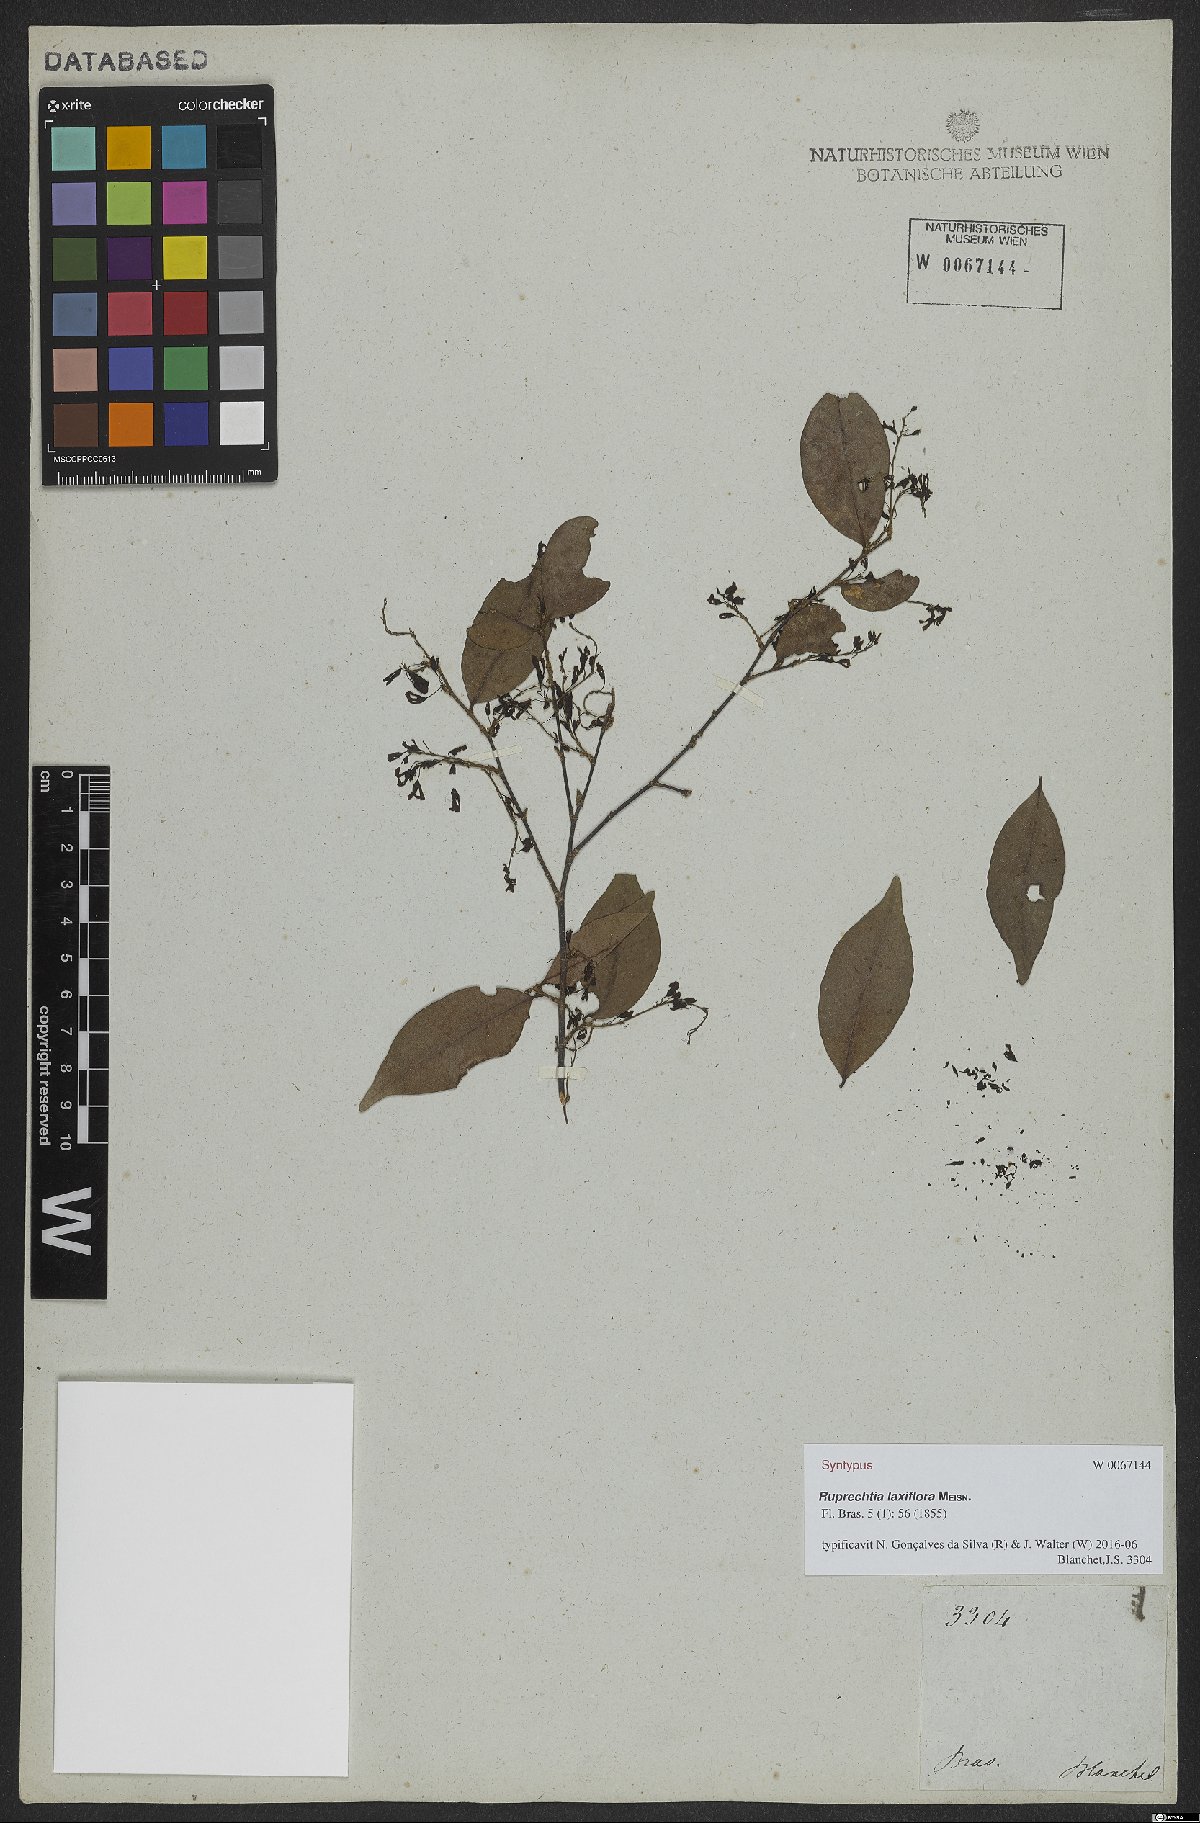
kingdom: Plantae
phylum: Tracheophyta
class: Magnoliopsida
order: Caryophyllales
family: Polygonaceae
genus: Ruprechtia
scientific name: Ruprechtia laxiflora
